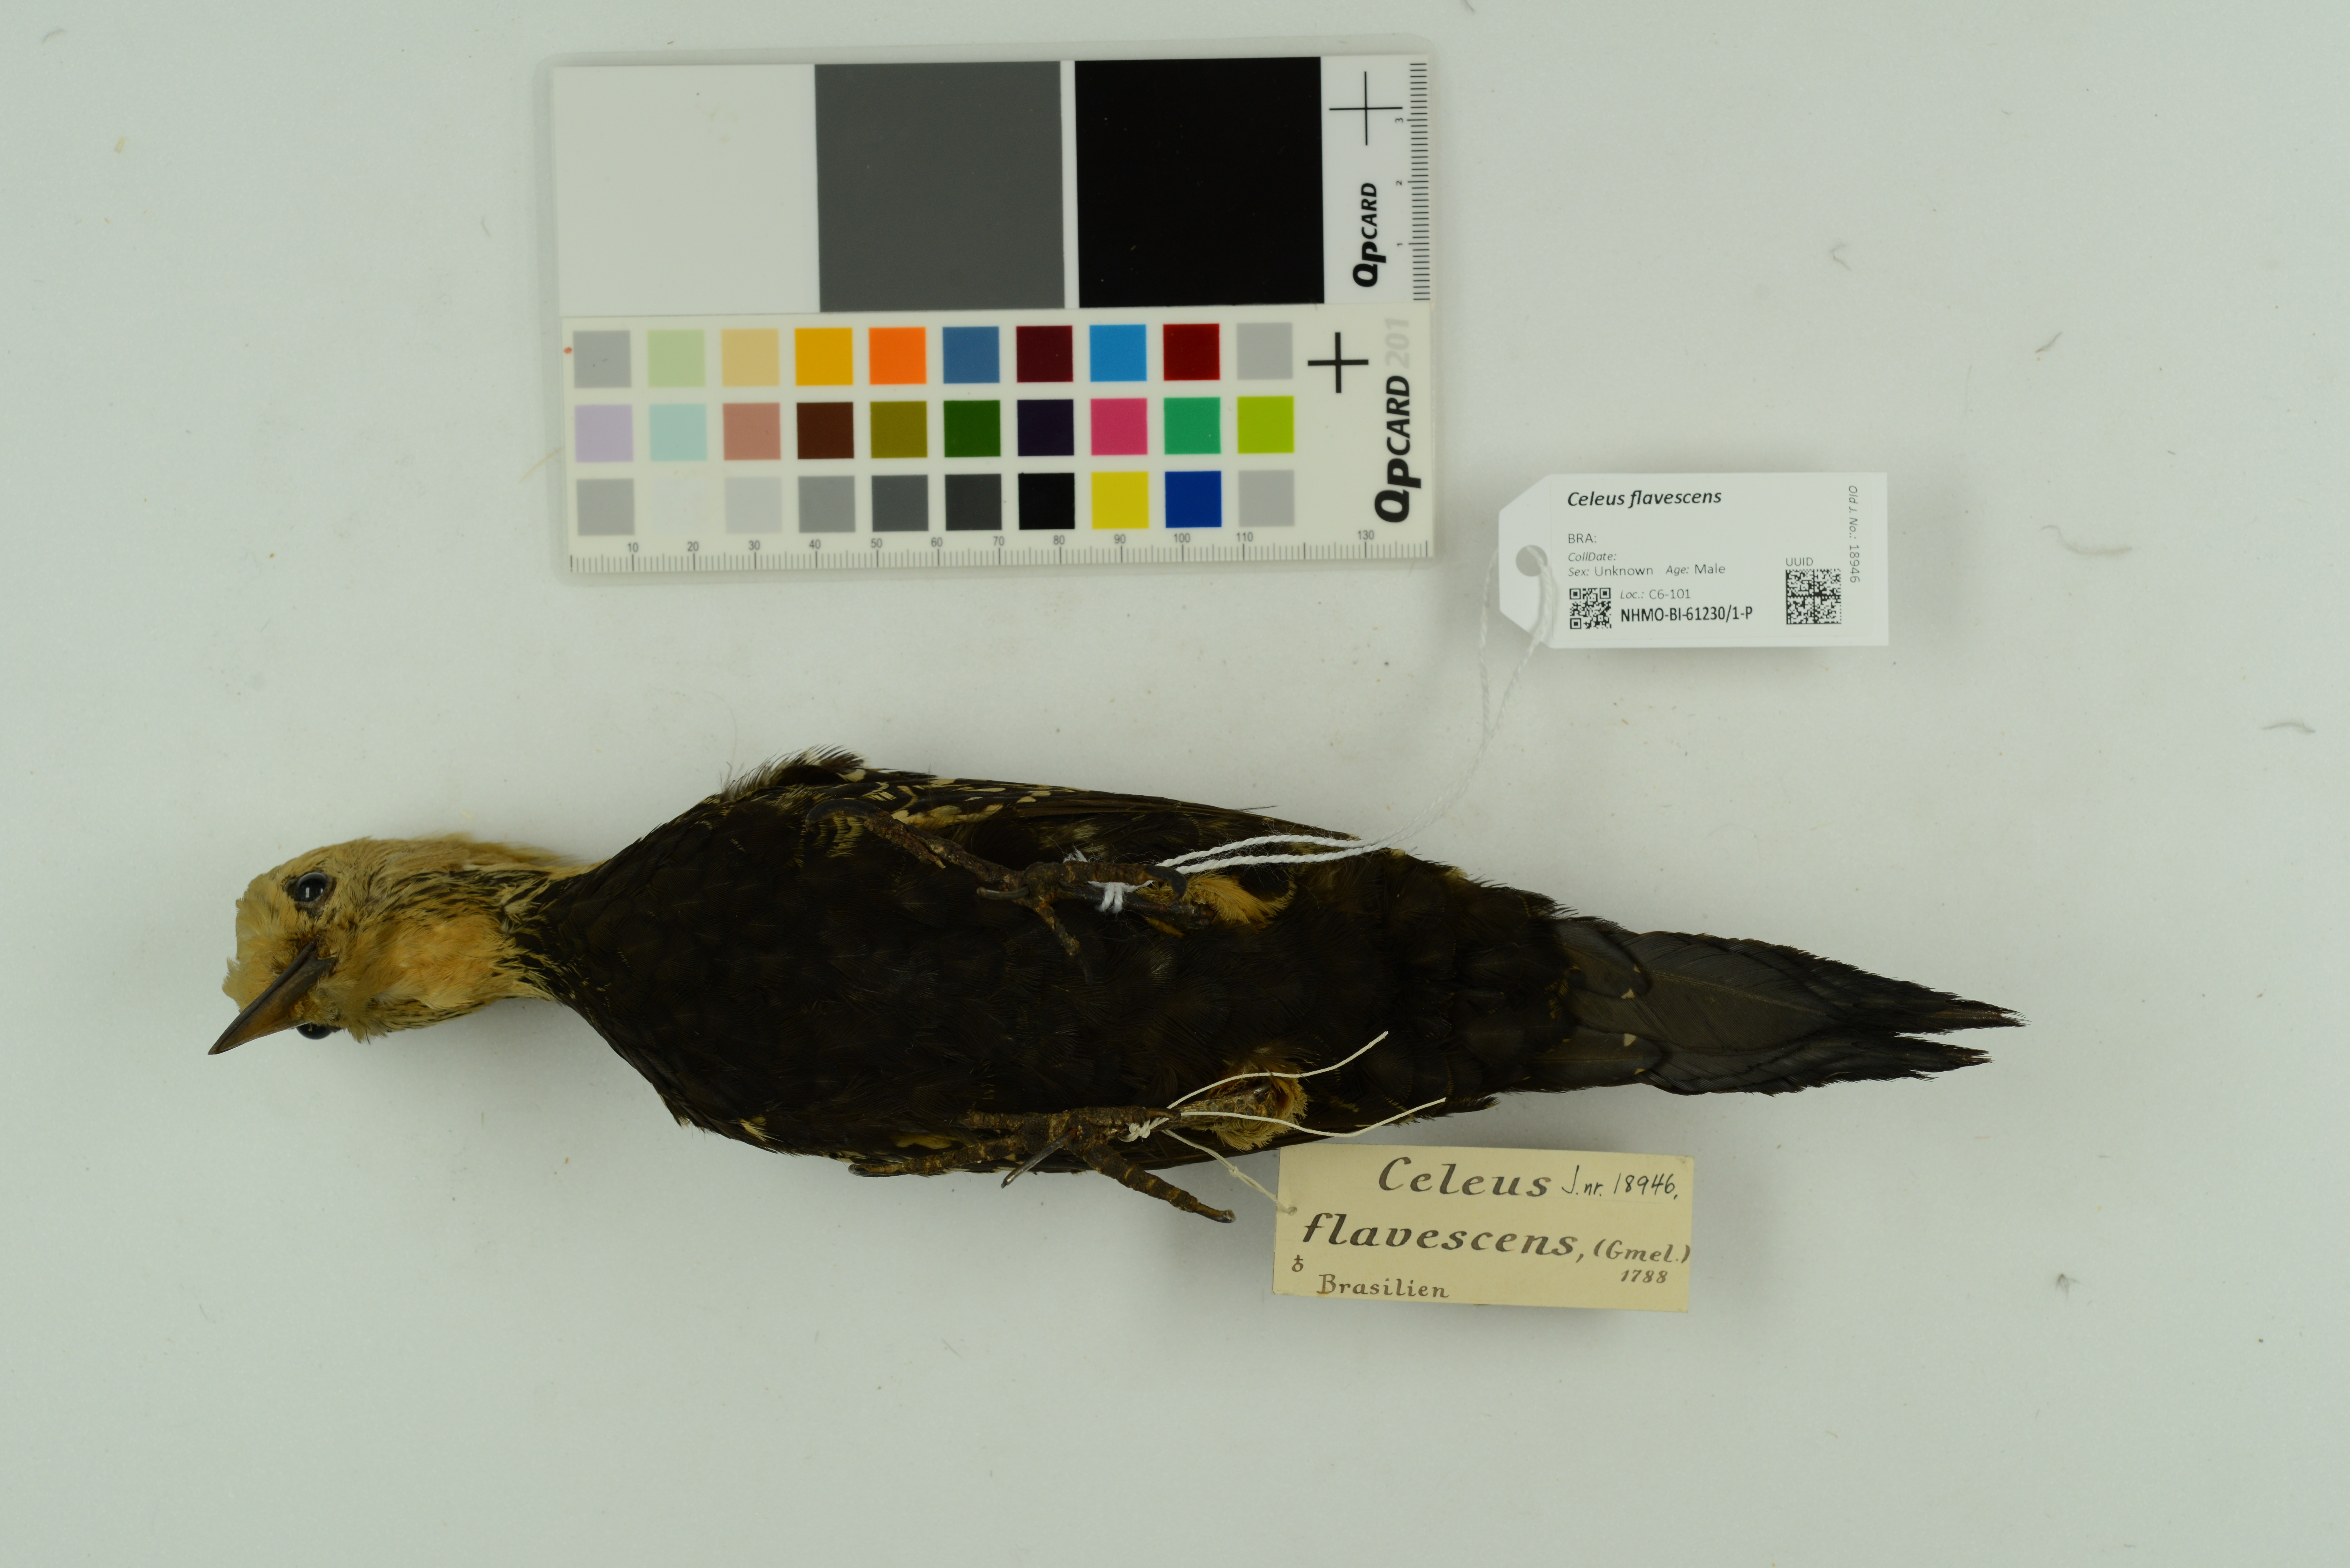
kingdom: Animalia
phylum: Chordata
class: Aves
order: Piciformes
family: Picidae
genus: Celeus
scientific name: Celeus flavescens
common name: Blond-crested woodpecker
